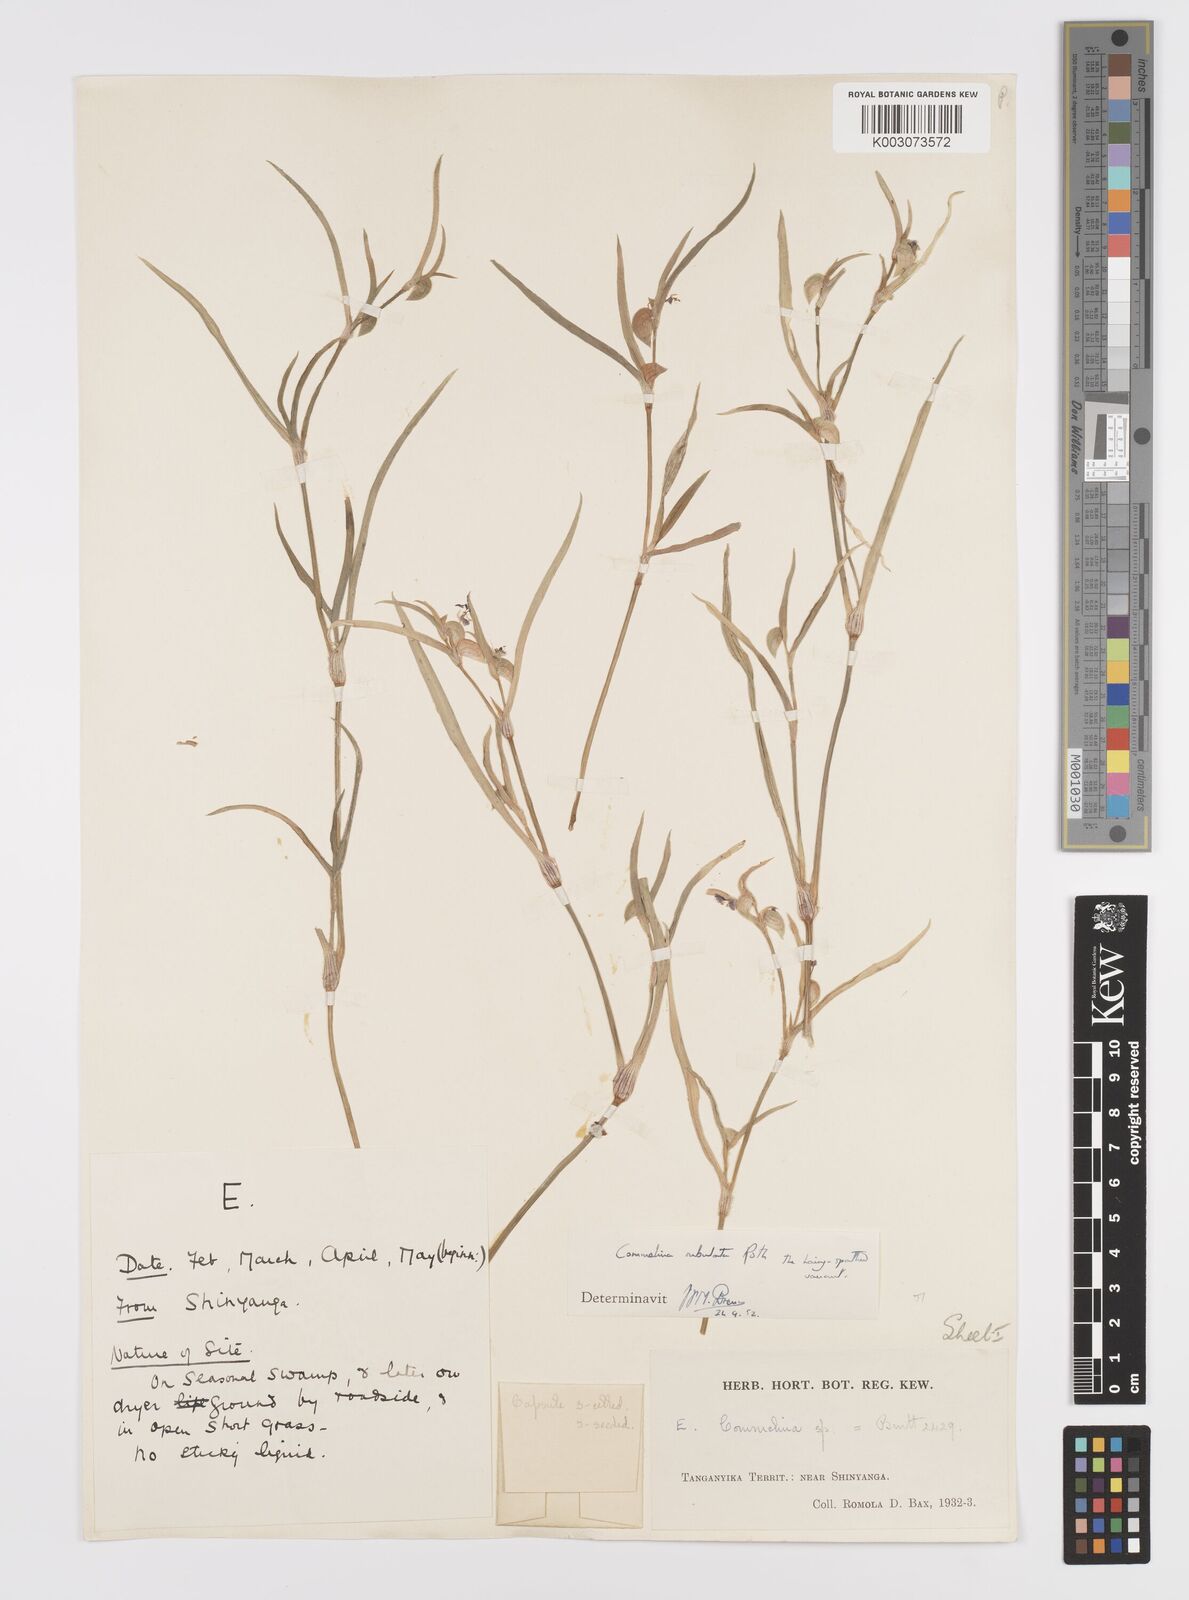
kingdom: Plantae
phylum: Tracheophyta
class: Liliopsida
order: Commelinales
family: Commelinaceae
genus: Commelina
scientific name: Commelina subulata
